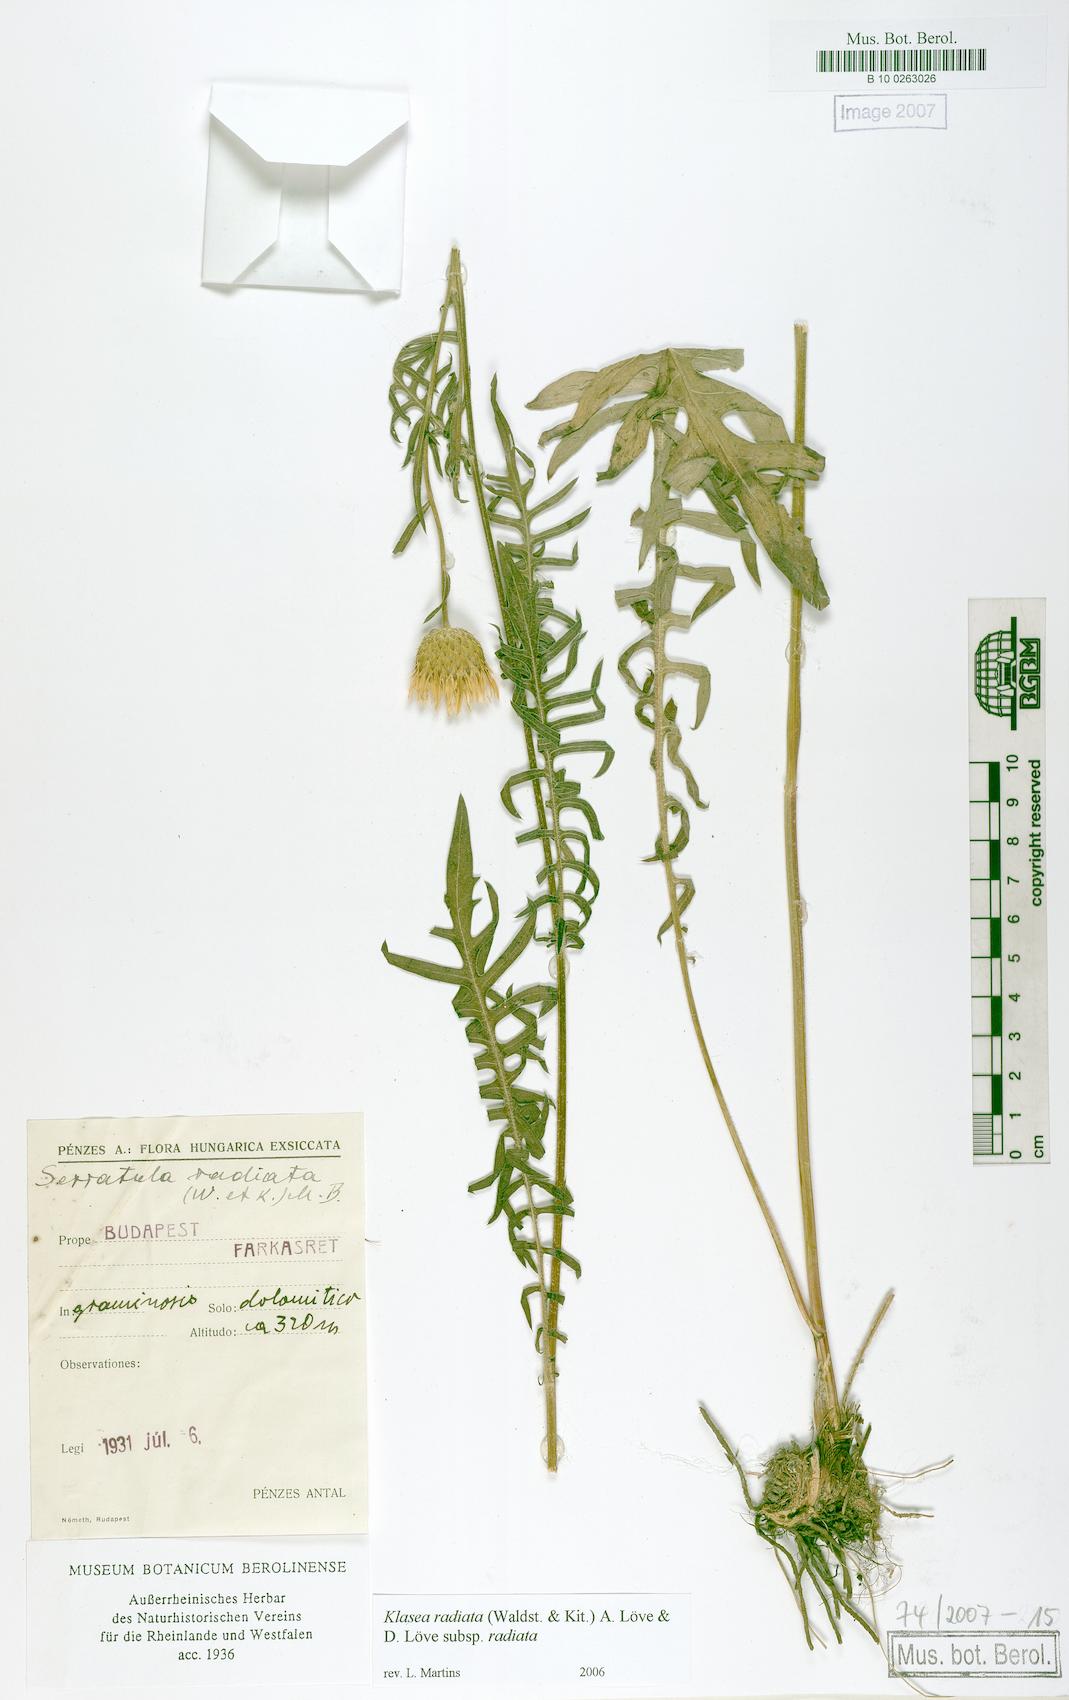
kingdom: Plantae
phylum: Tracheophyta
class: Magnoliopsida
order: Asterales
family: Asteraceae
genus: Klasea
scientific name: Klasea radiata
